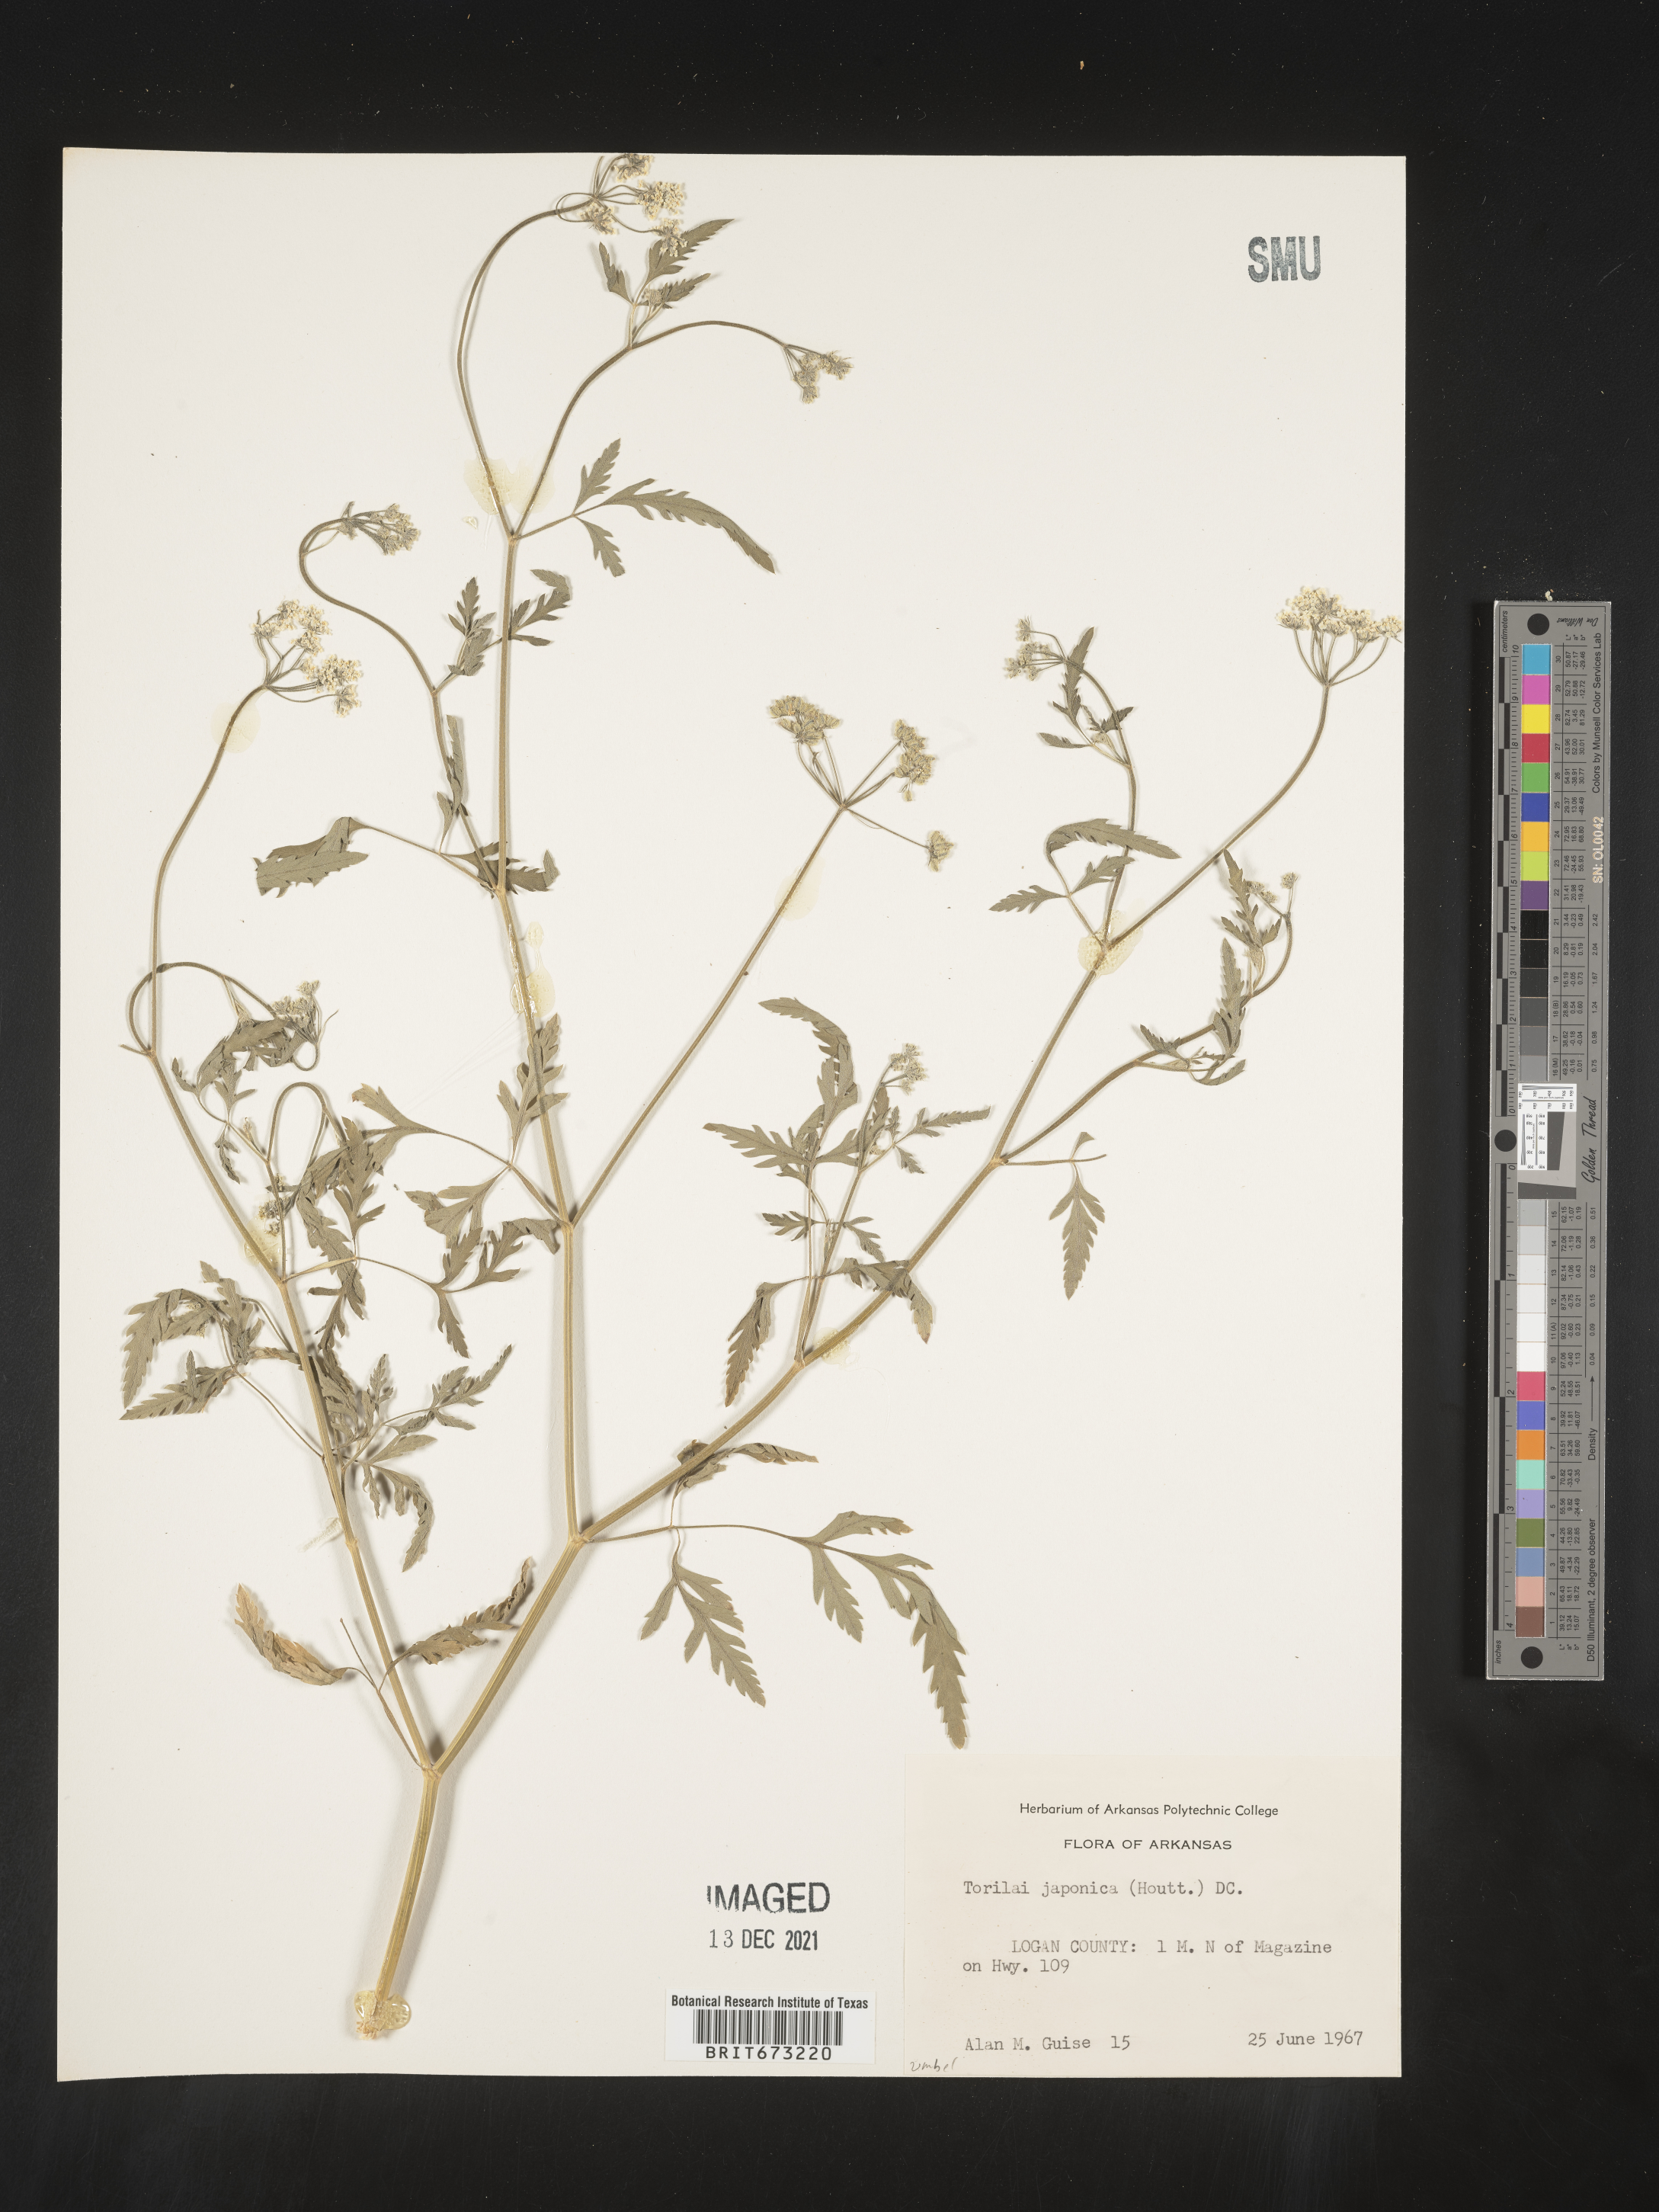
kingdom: Plantae
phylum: Tracheophyta
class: Magnoliopsida
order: Apiales
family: Apiaceae
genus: Torilis
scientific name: Torilis arvensis
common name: Spreading hedge-parsley
